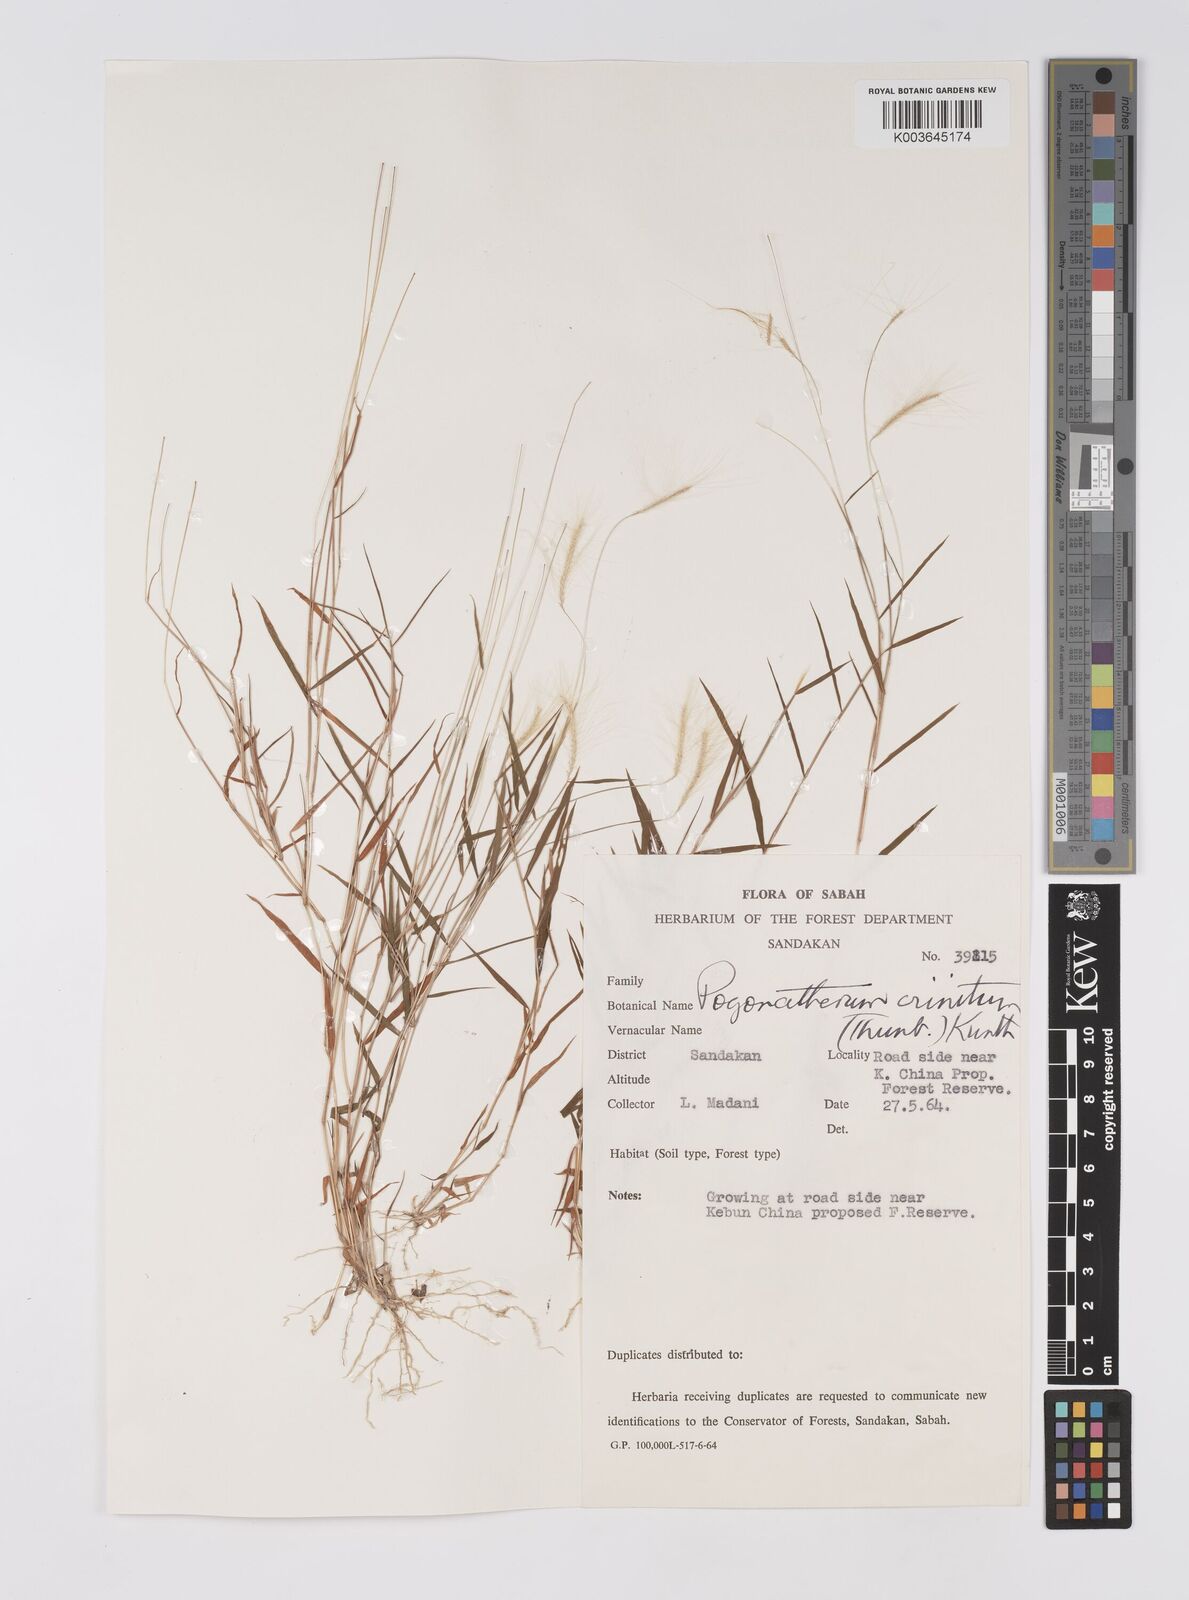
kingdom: Plantae
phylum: Tracheophyta
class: Liliopsida
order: Poales
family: Poaceae
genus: Pogonatherum
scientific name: Pogonatherum crinitum
